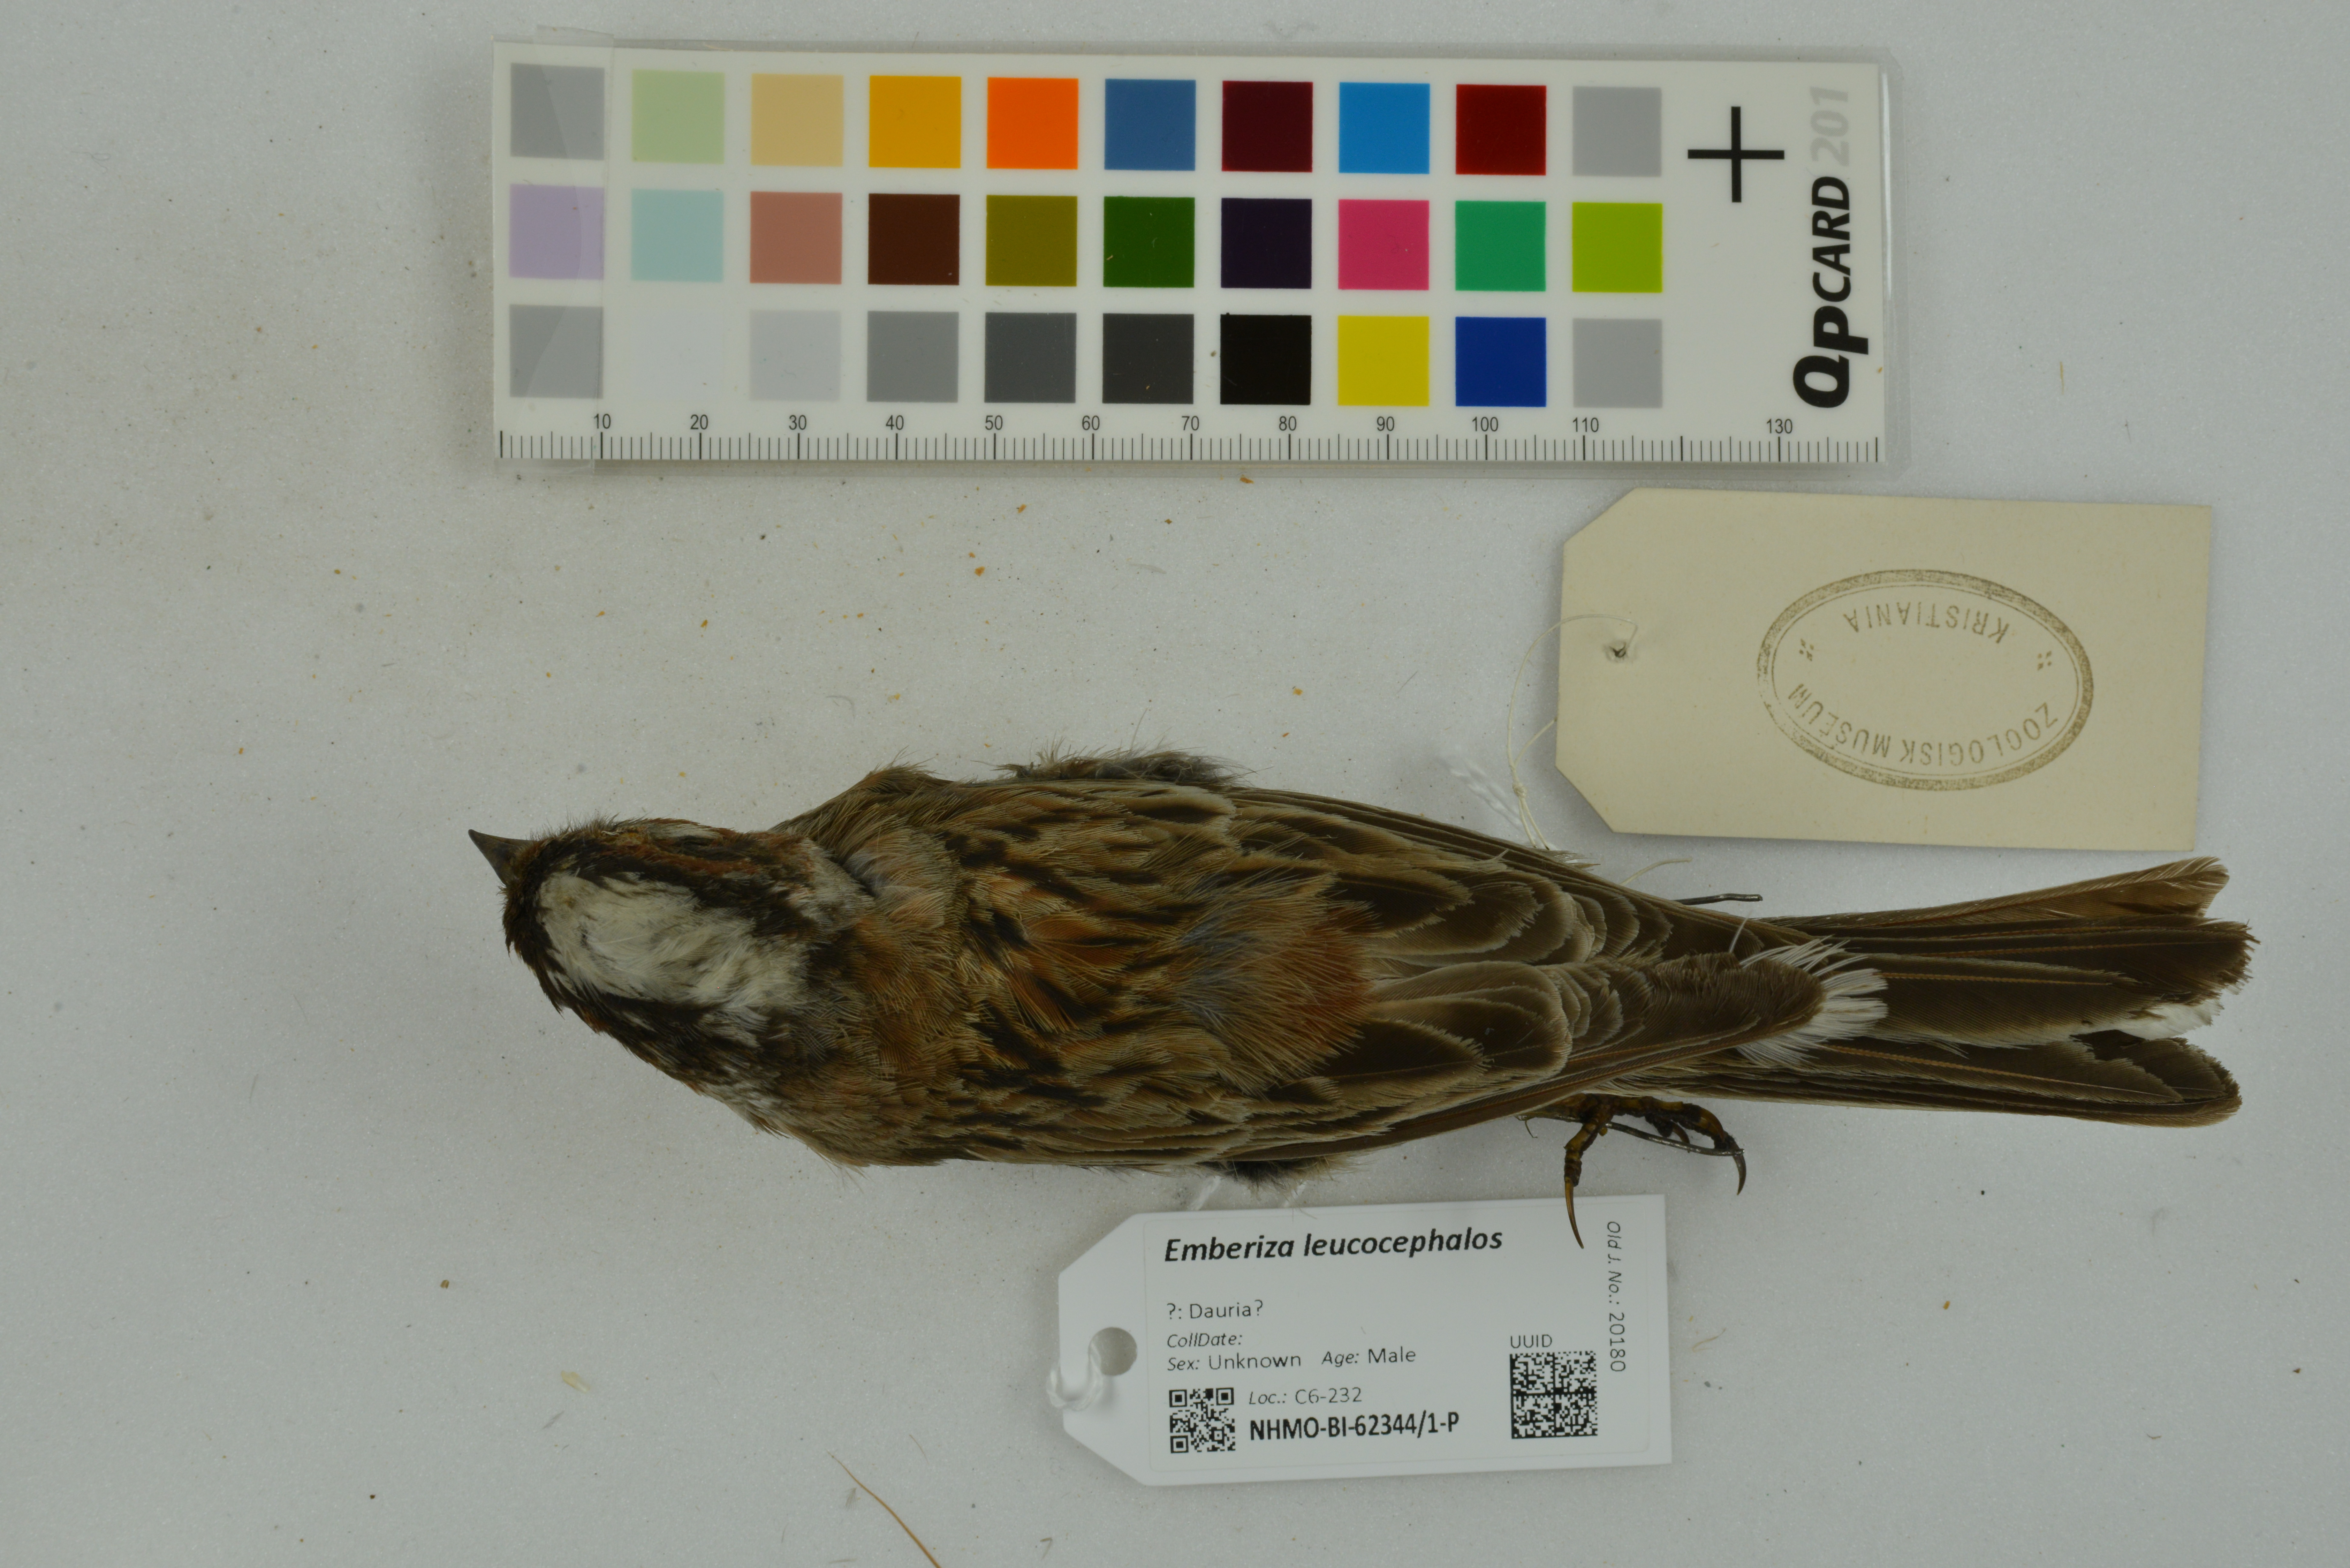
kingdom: Animalia
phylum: Chordata
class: Aves
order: Passeriformes
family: Emberizidae
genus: Emberiza
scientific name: Emberiza leucocephalos
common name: Pine bunting
